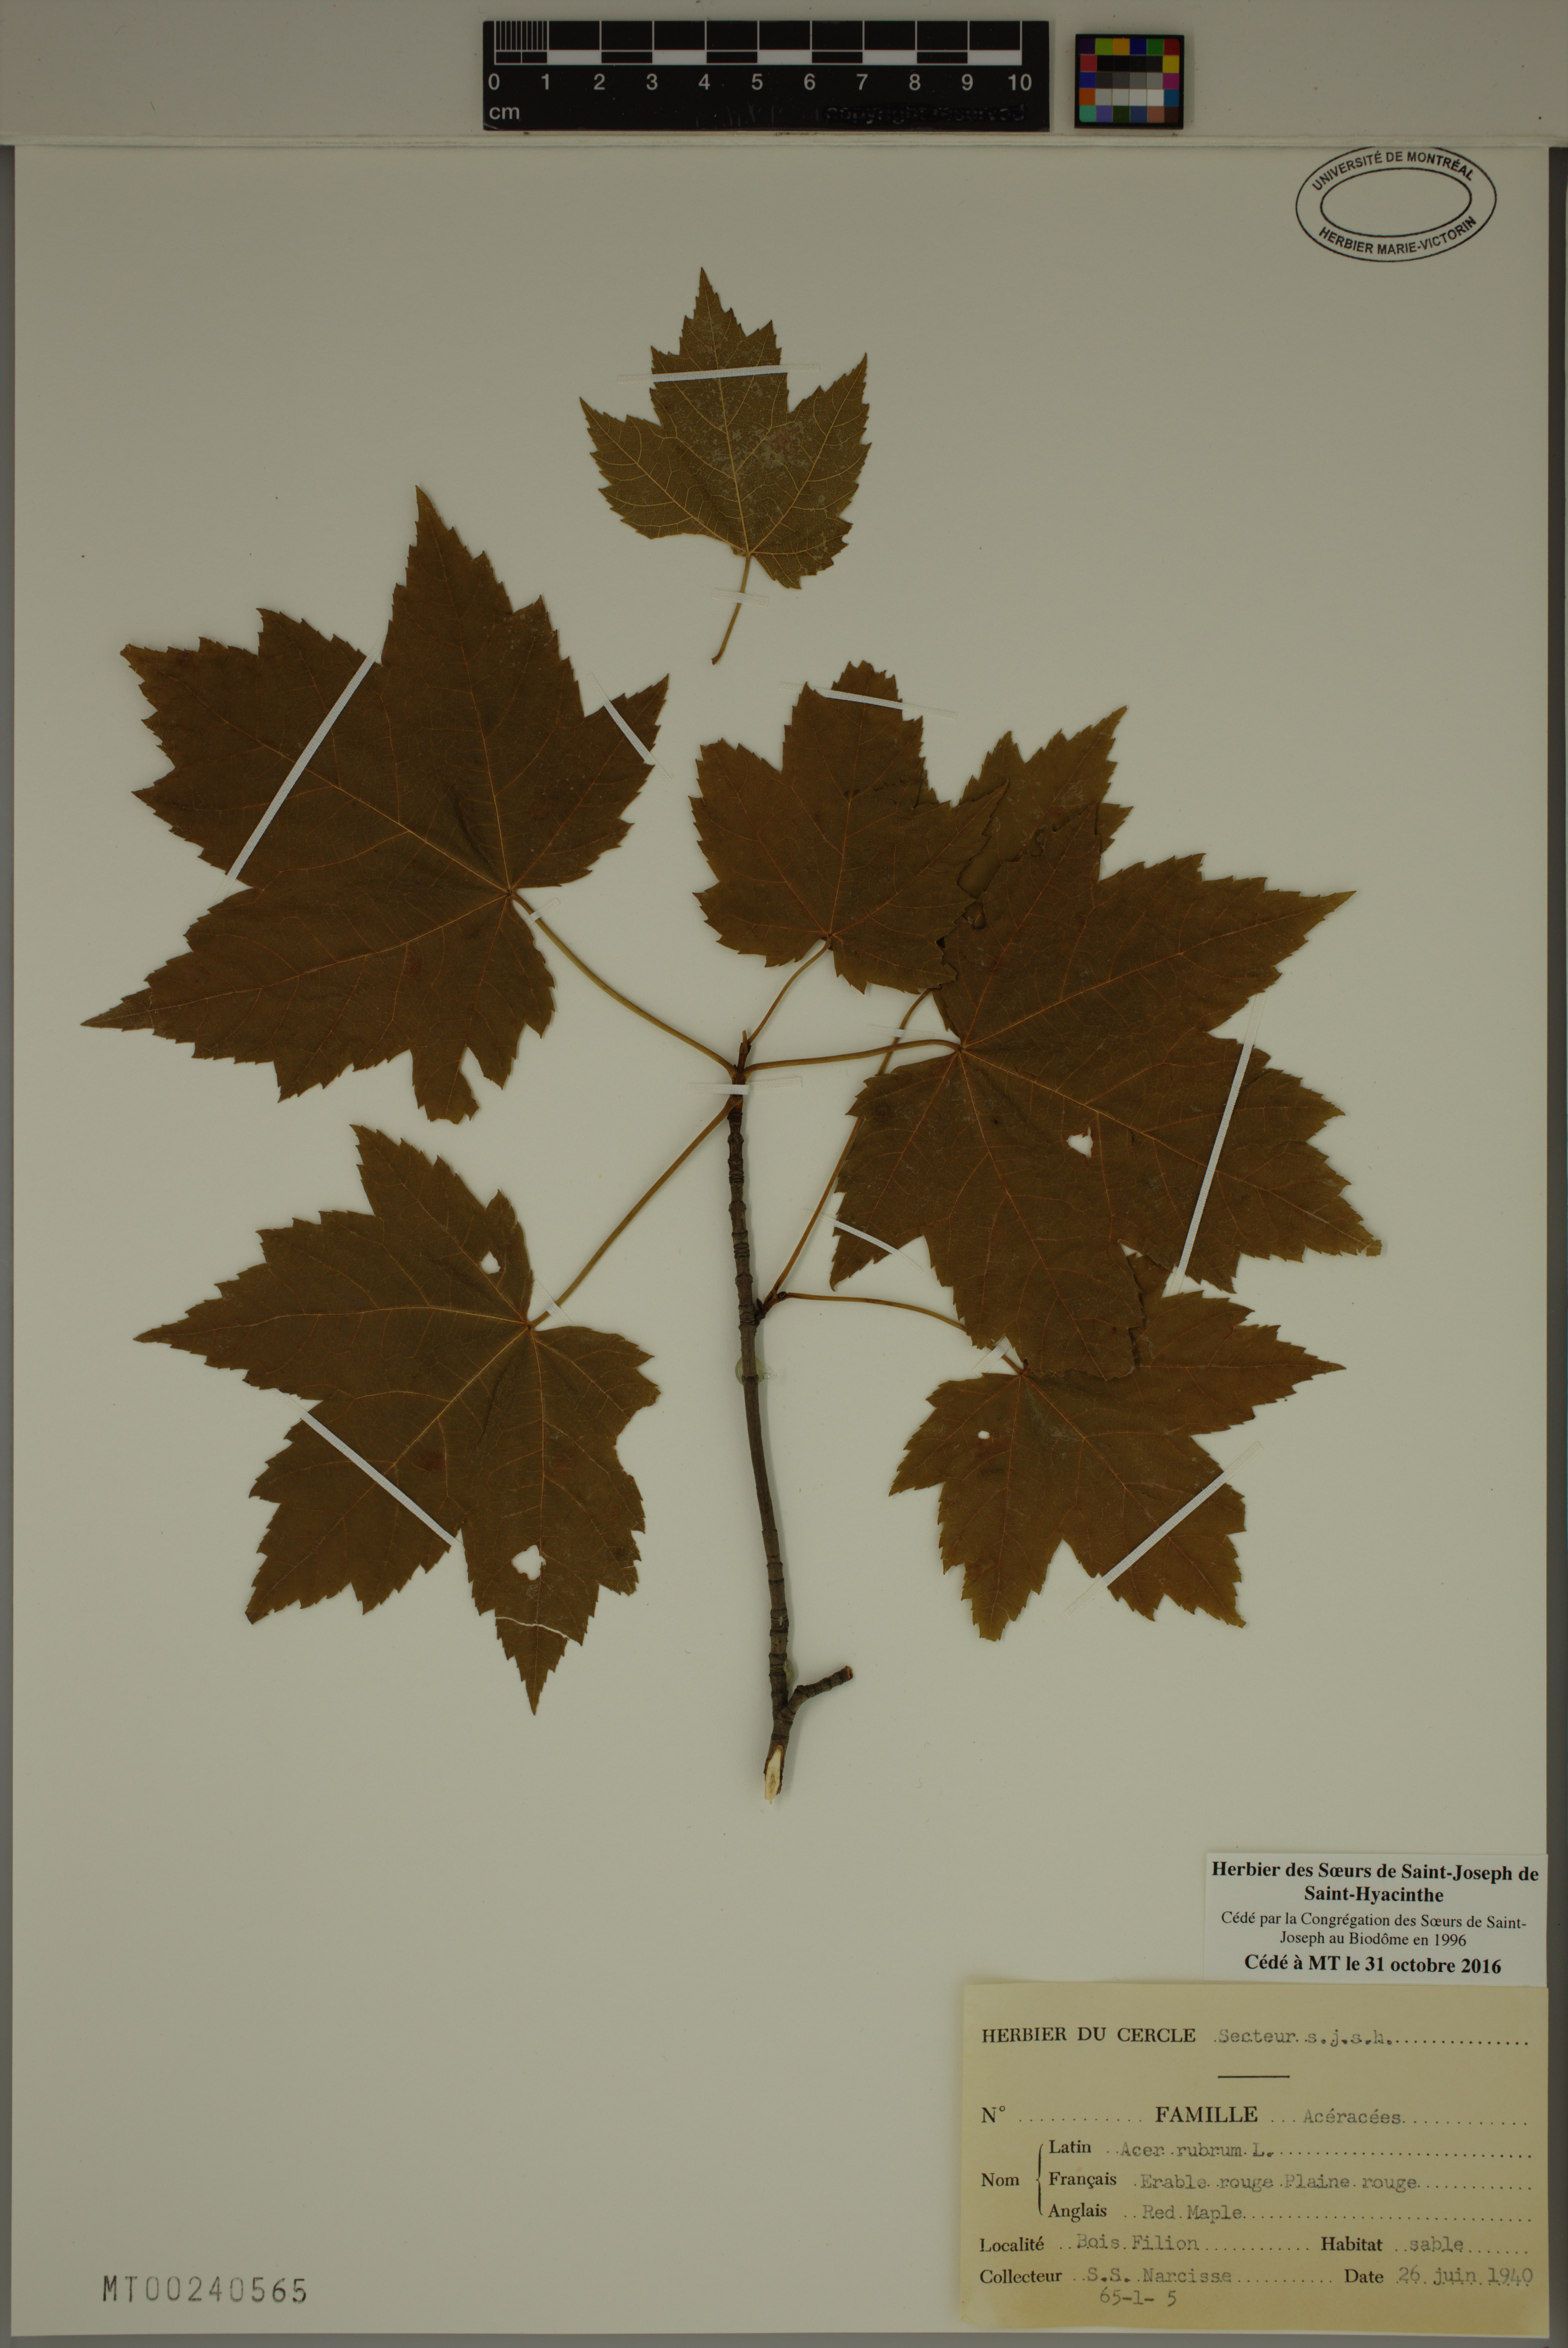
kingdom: Plantae
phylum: Tracheophyta
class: Magnoliopsida
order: Sapindales
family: Sapindaceae
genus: Acer
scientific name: Acer rubrum
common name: Red maple
